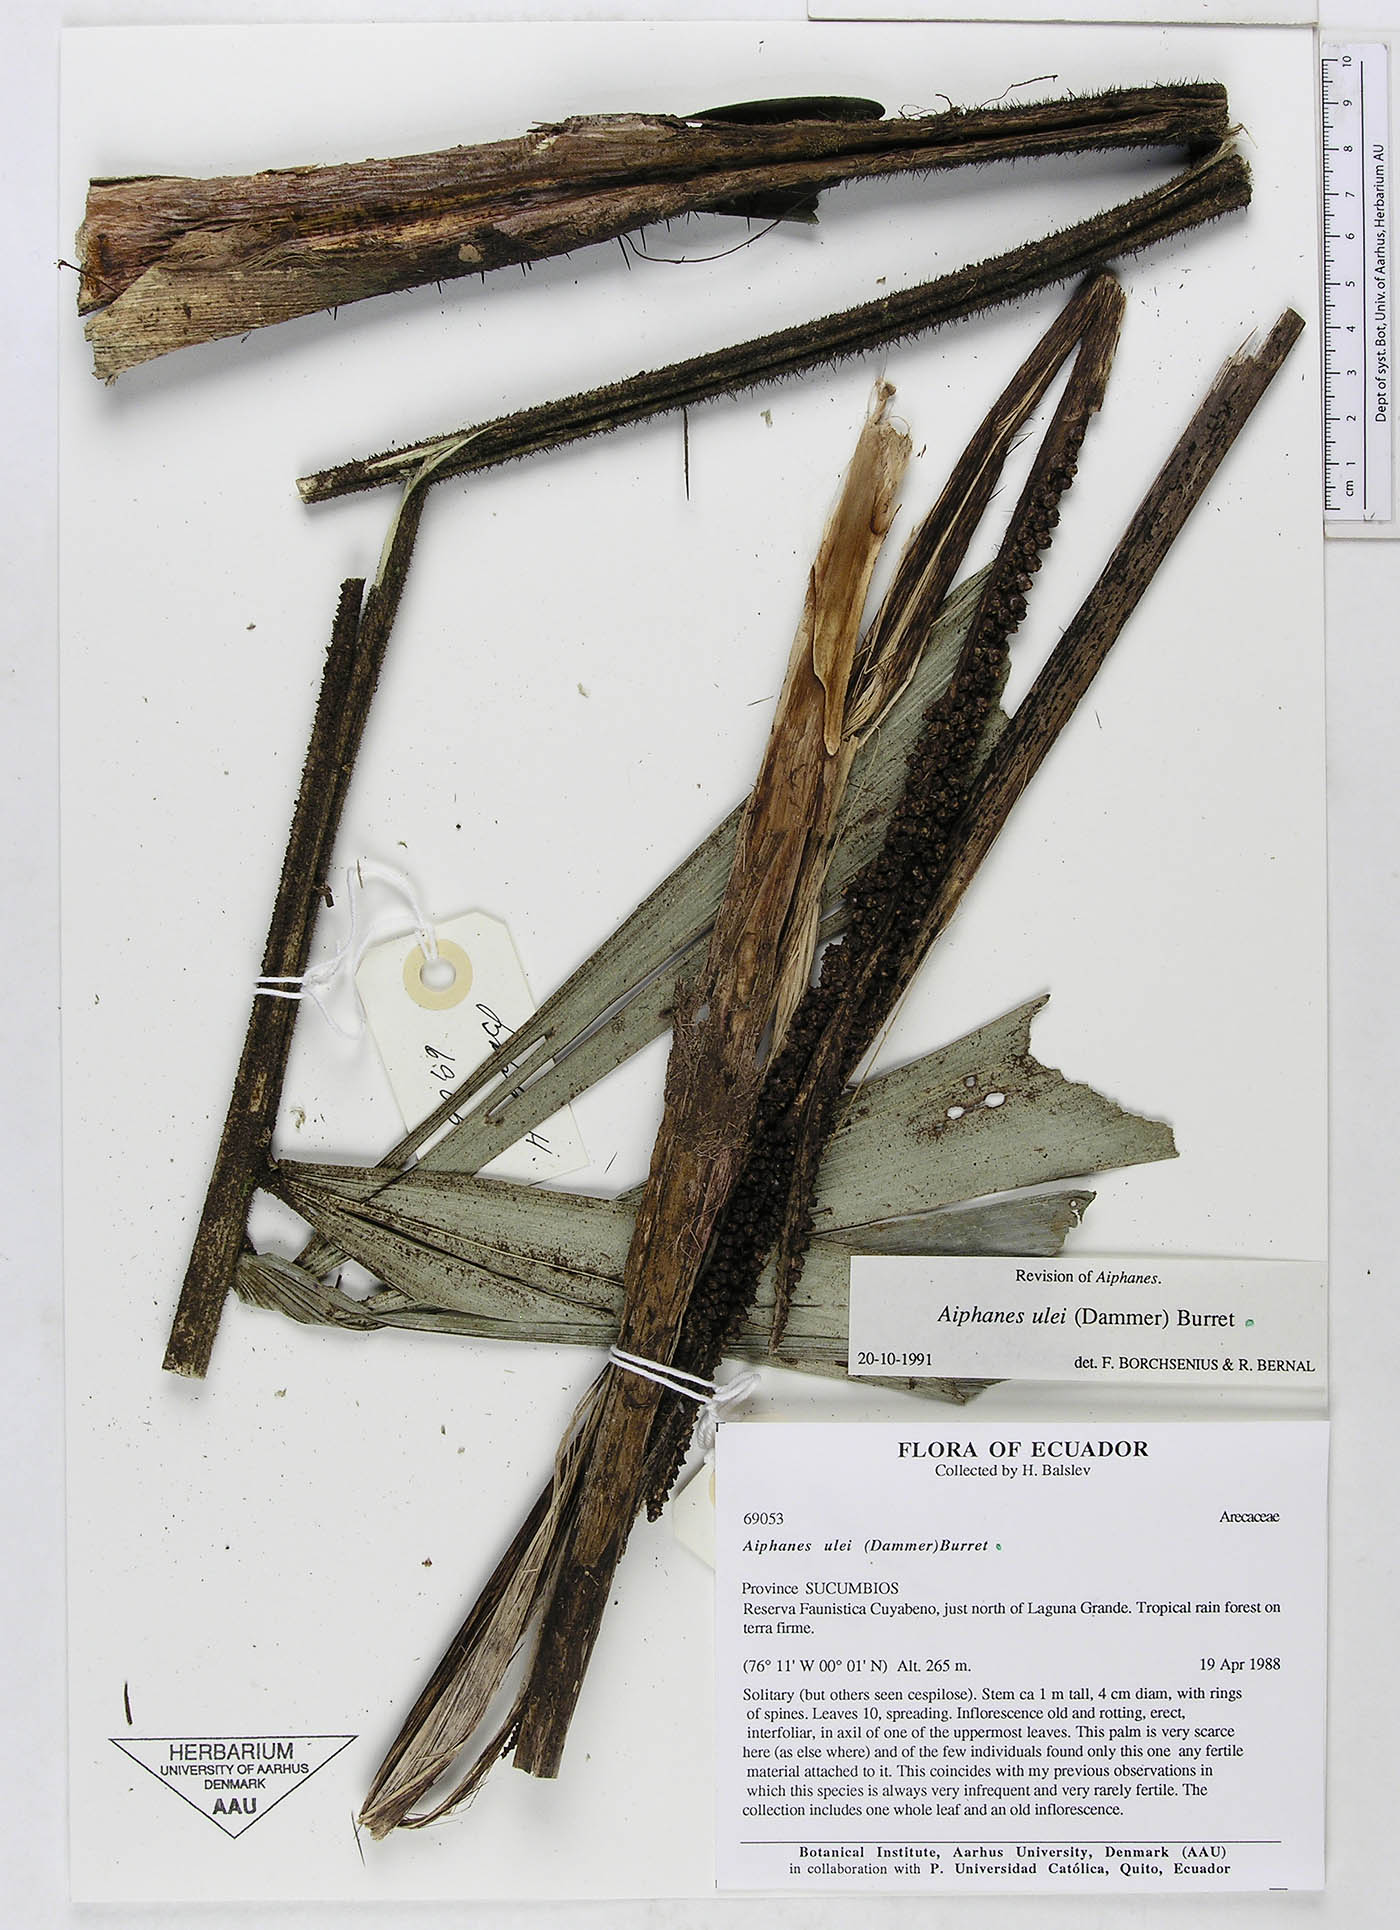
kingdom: Plantae
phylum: Tracheophyta
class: Liliopsida
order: Arecales
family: Arecaceae
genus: Aiphanes
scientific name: Aiphanes ulei
